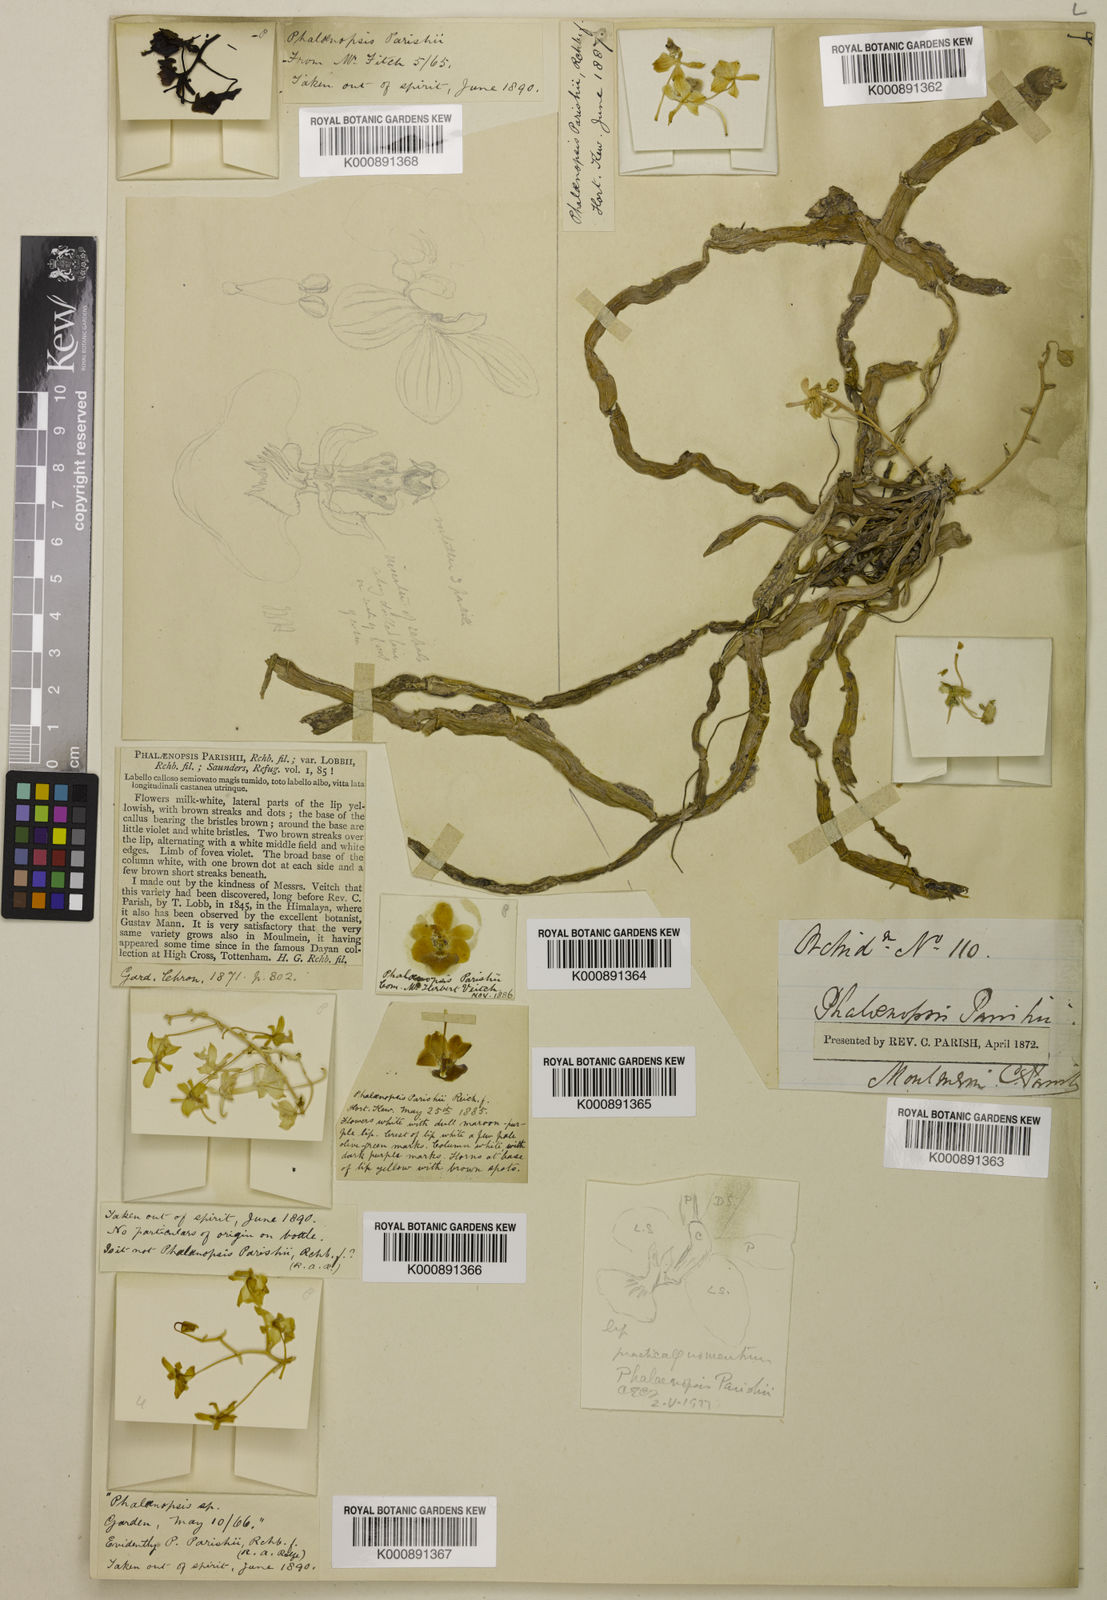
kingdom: Plantae
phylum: Tracheophyta
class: Liliopsida
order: Asparagales
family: Orchidaceae
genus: Phalaenopsis
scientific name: Phalaenopsis parishii
